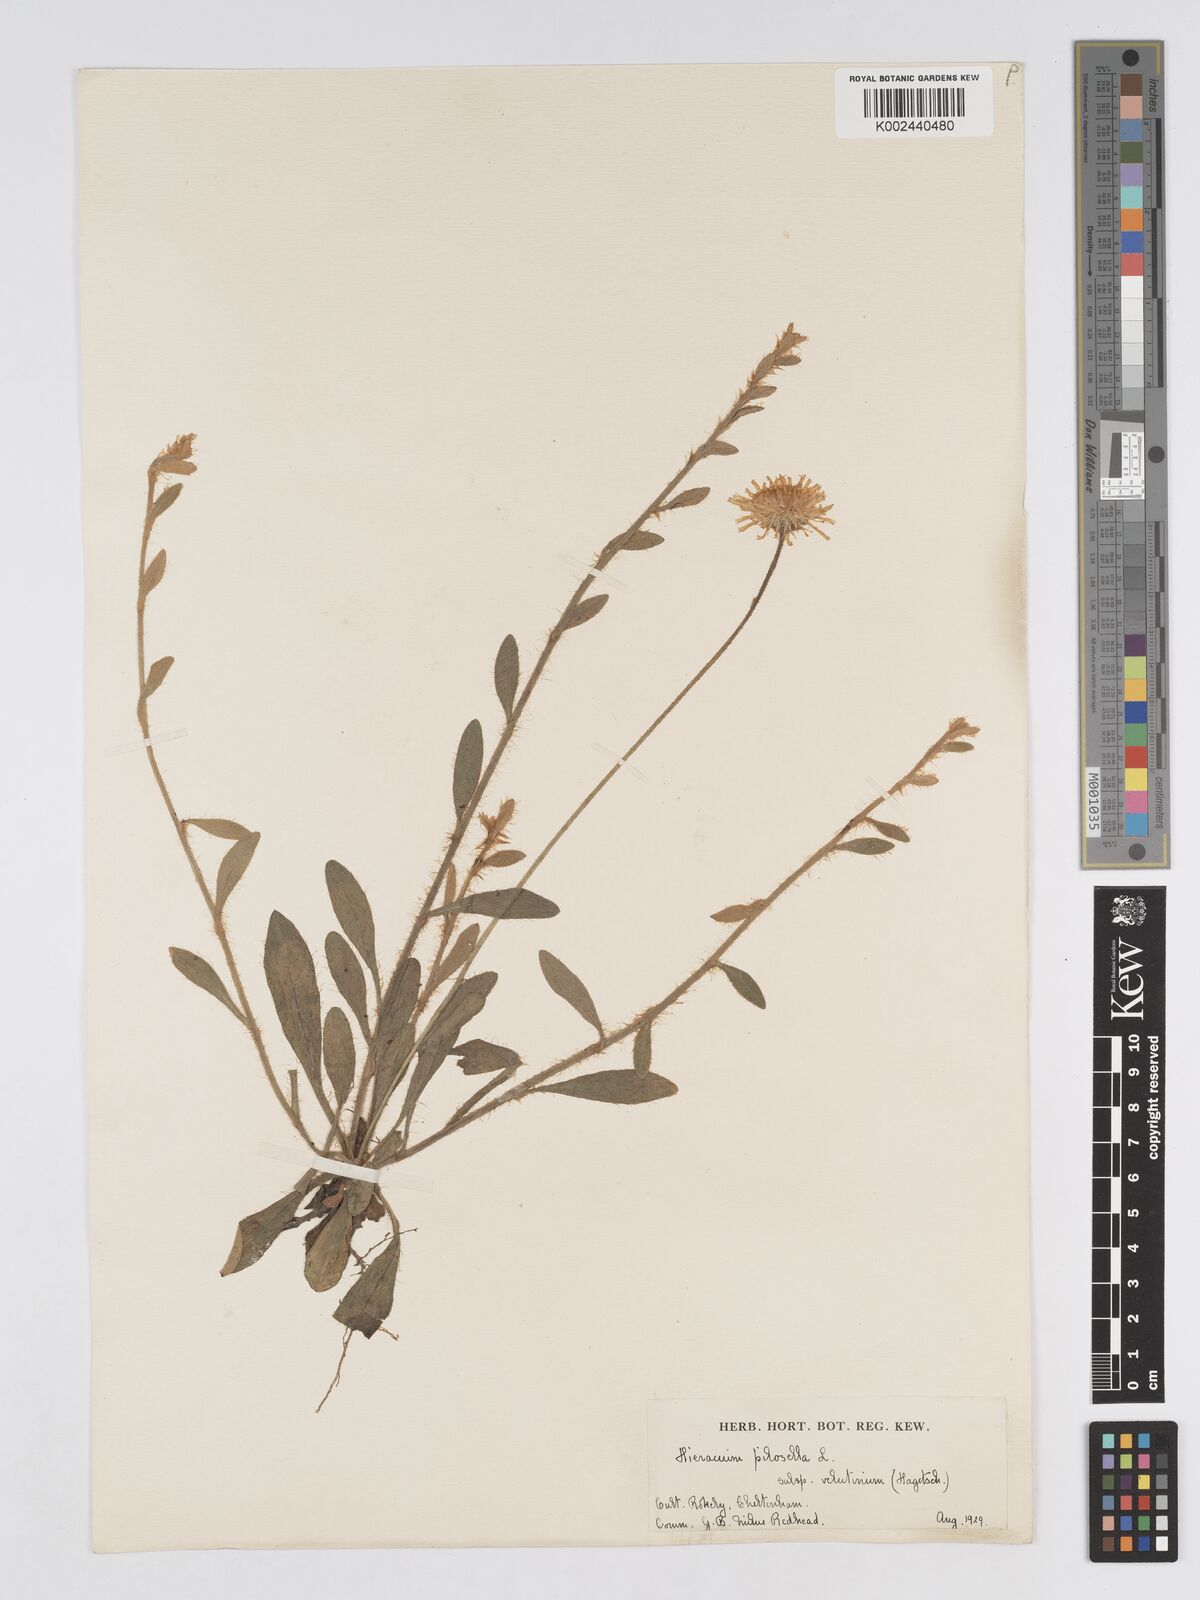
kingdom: Plantae
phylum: Tracheophyta
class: Magnoliopsida
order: Asterales
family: Asteraceae
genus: Pilosella
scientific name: Pilosella velutina
